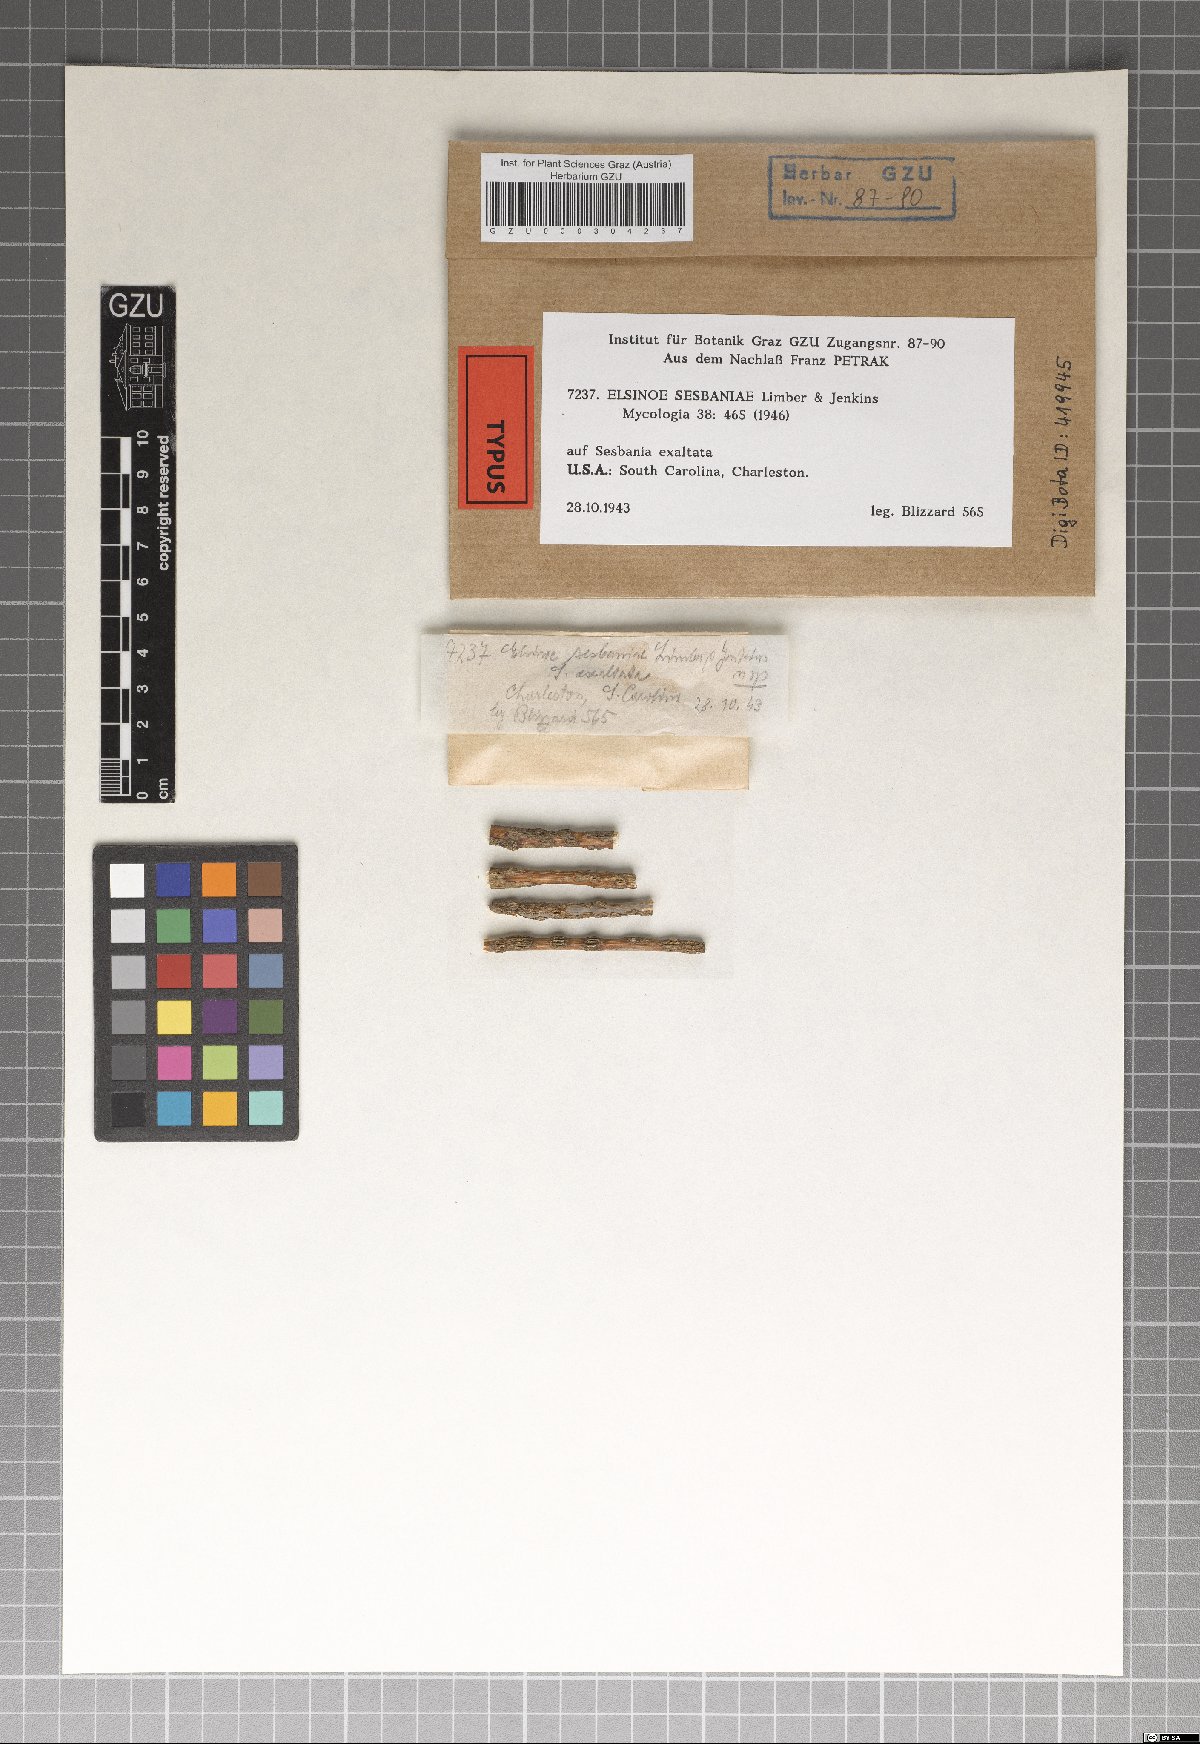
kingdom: Fungi
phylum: Ascomycota
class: Dothideomycetes
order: Myriangiales
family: Elsinoaceae
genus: Elsinoe
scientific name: Elsinoe sesbaniae
